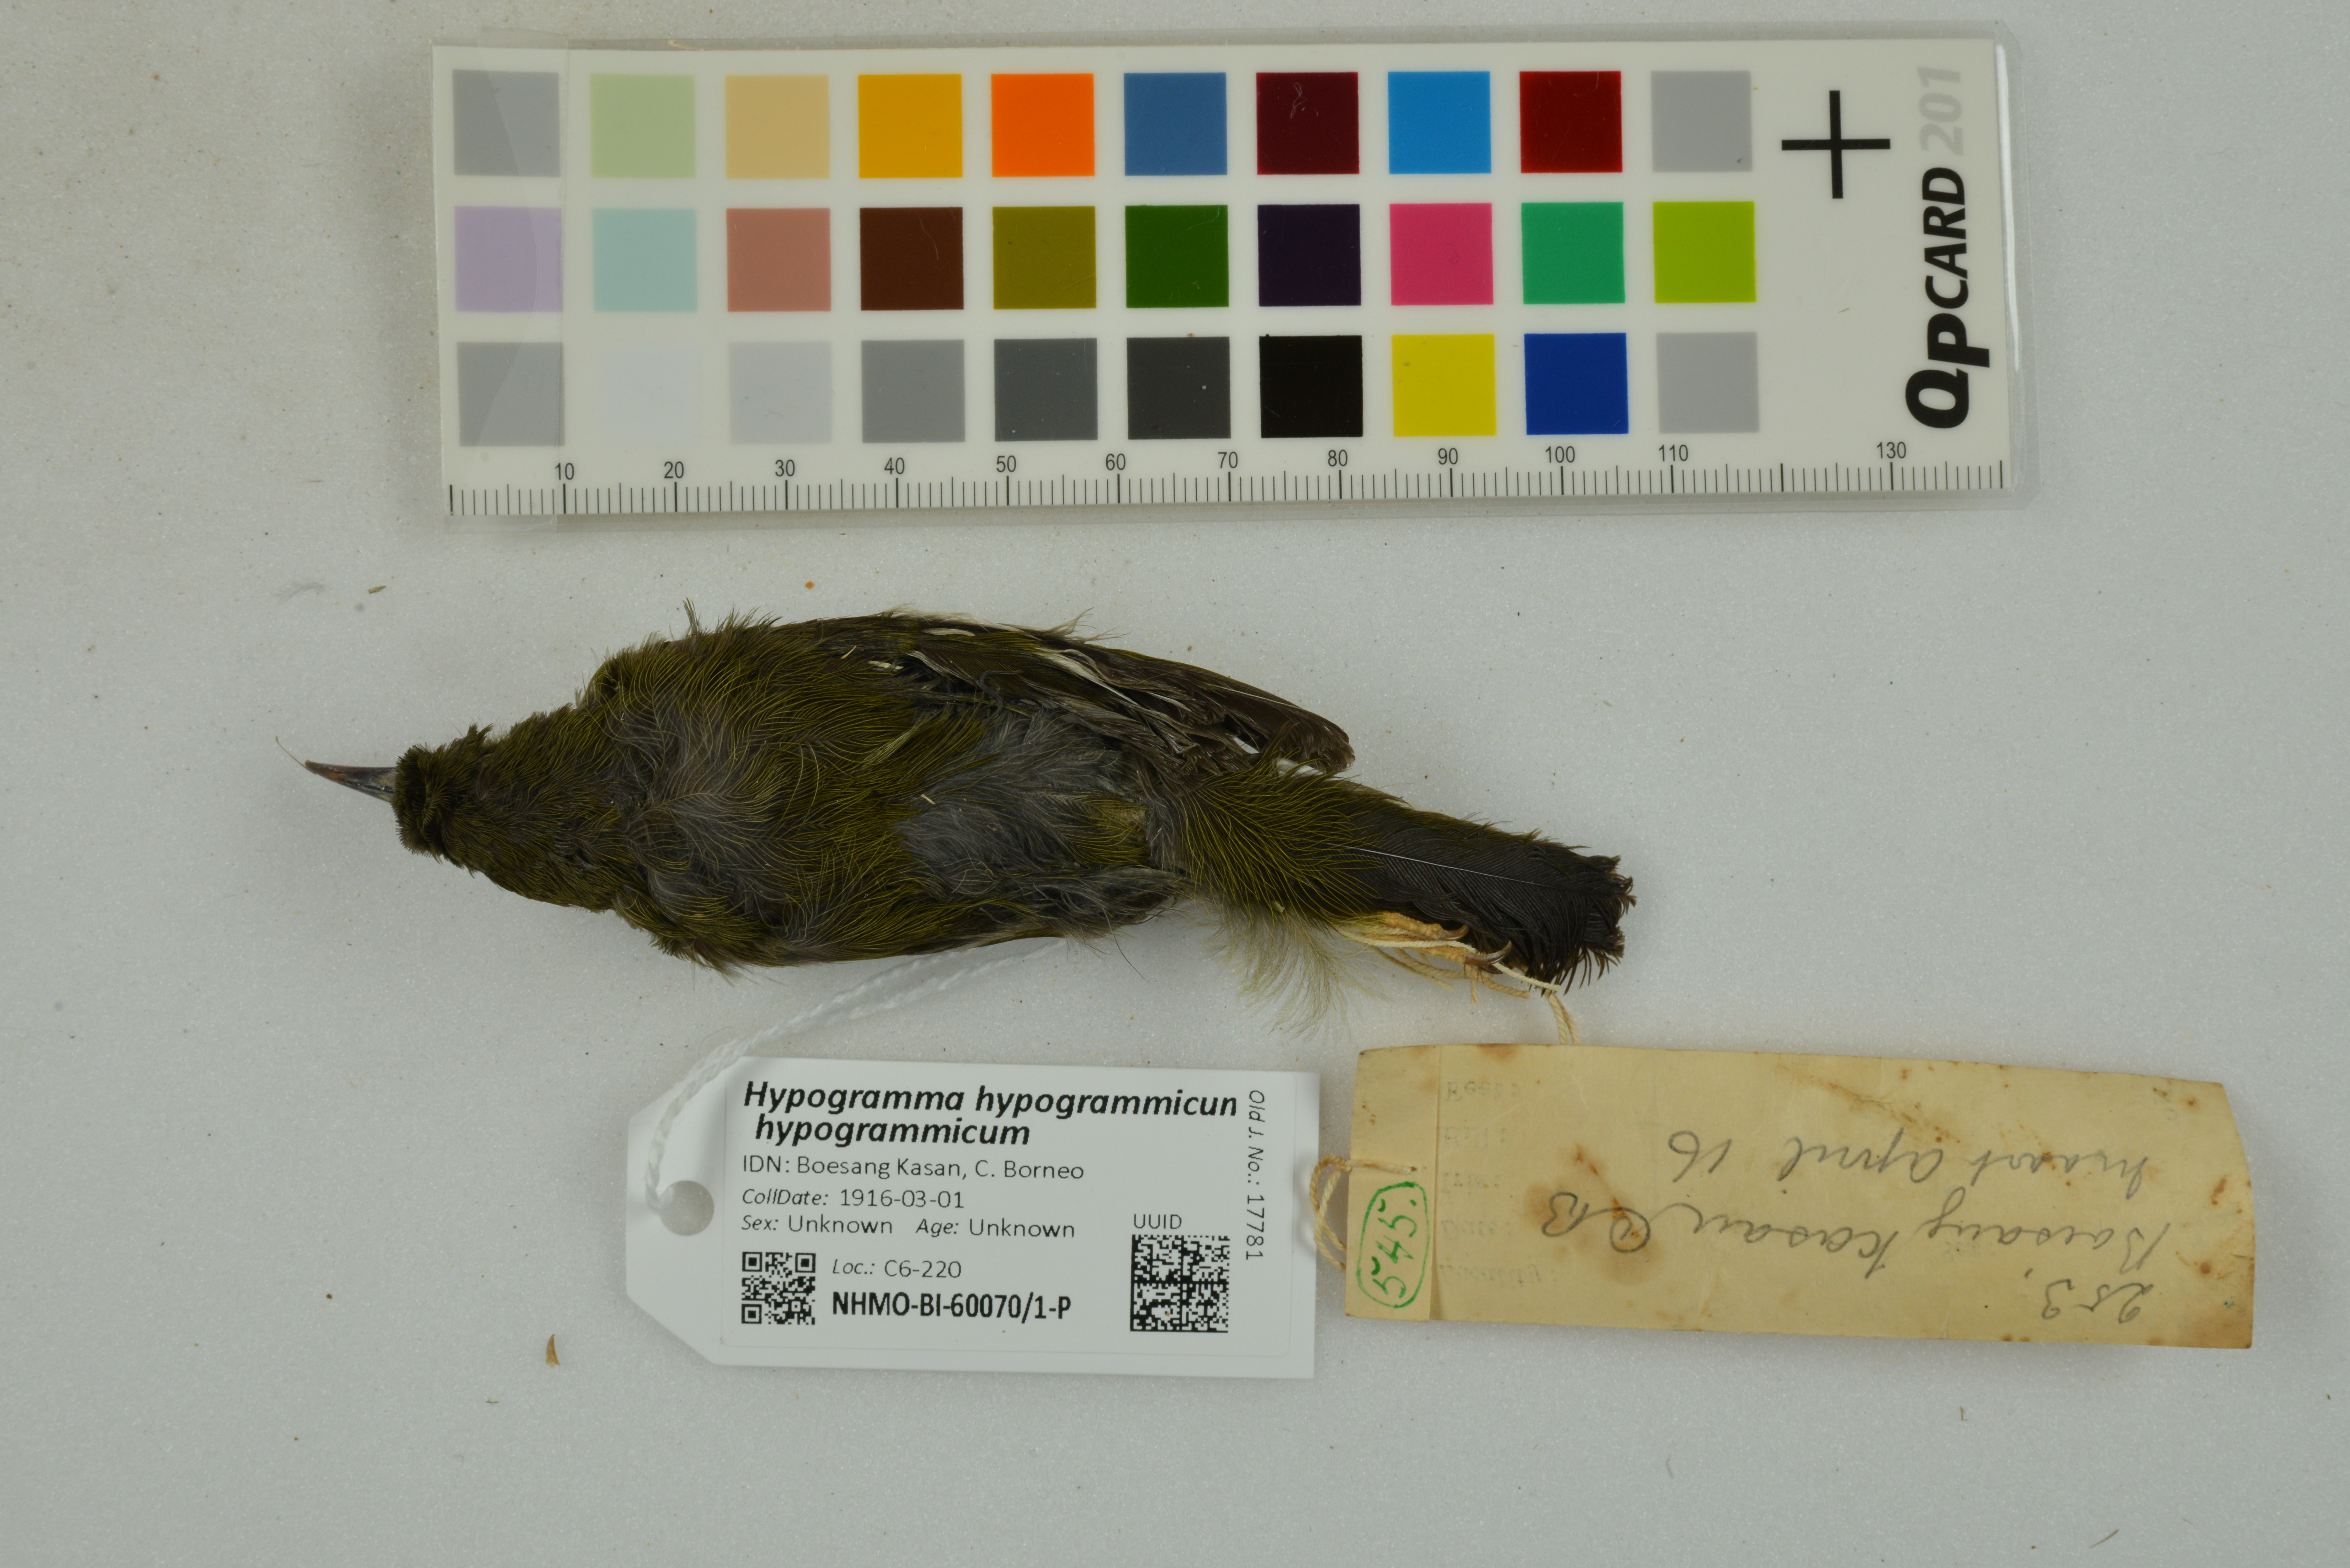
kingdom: Animalia
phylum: Chordata
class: Aves
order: Passeriformes
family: Nectariniidae
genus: Hypogramma
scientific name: Hypogramma hypogrammicum
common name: Purple-naped sunbird
